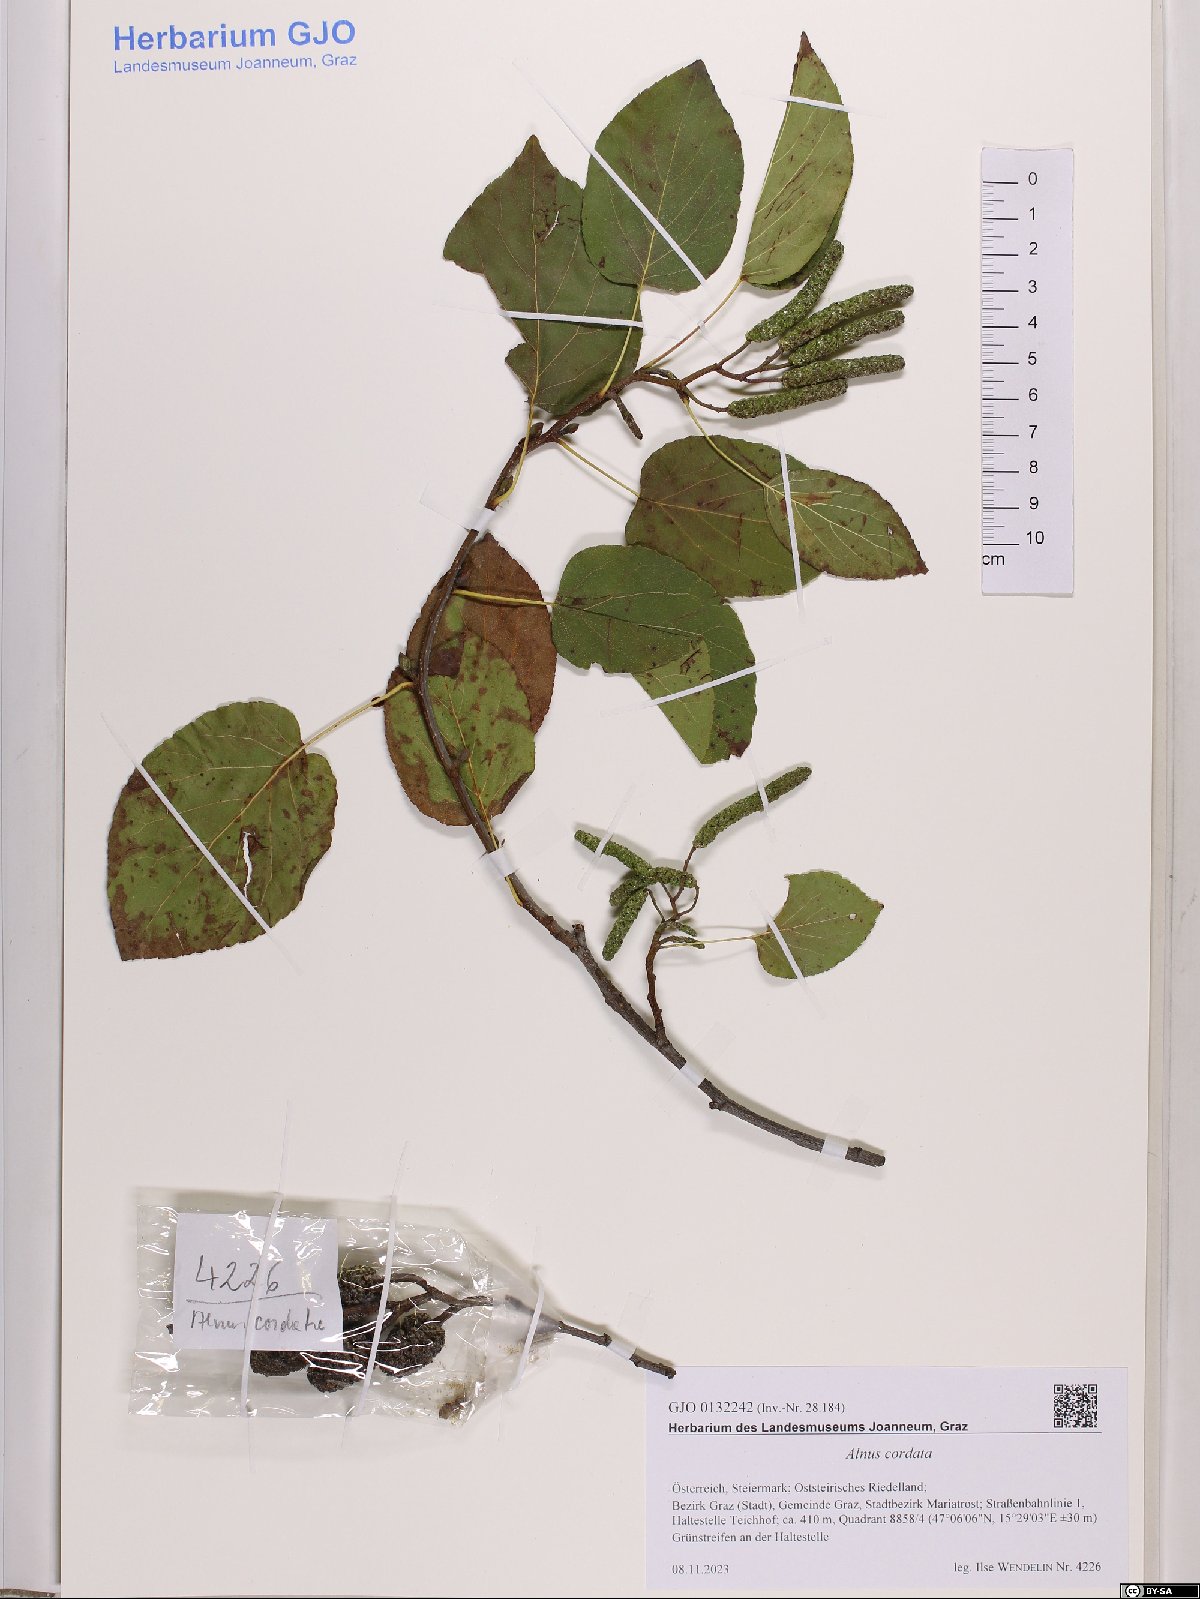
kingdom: Plantae
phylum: Tracheophyta
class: Magnoliopsida
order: Fagales
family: Betulaceae
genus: Alnus
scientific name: Alnus cordata
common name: Italian alder
